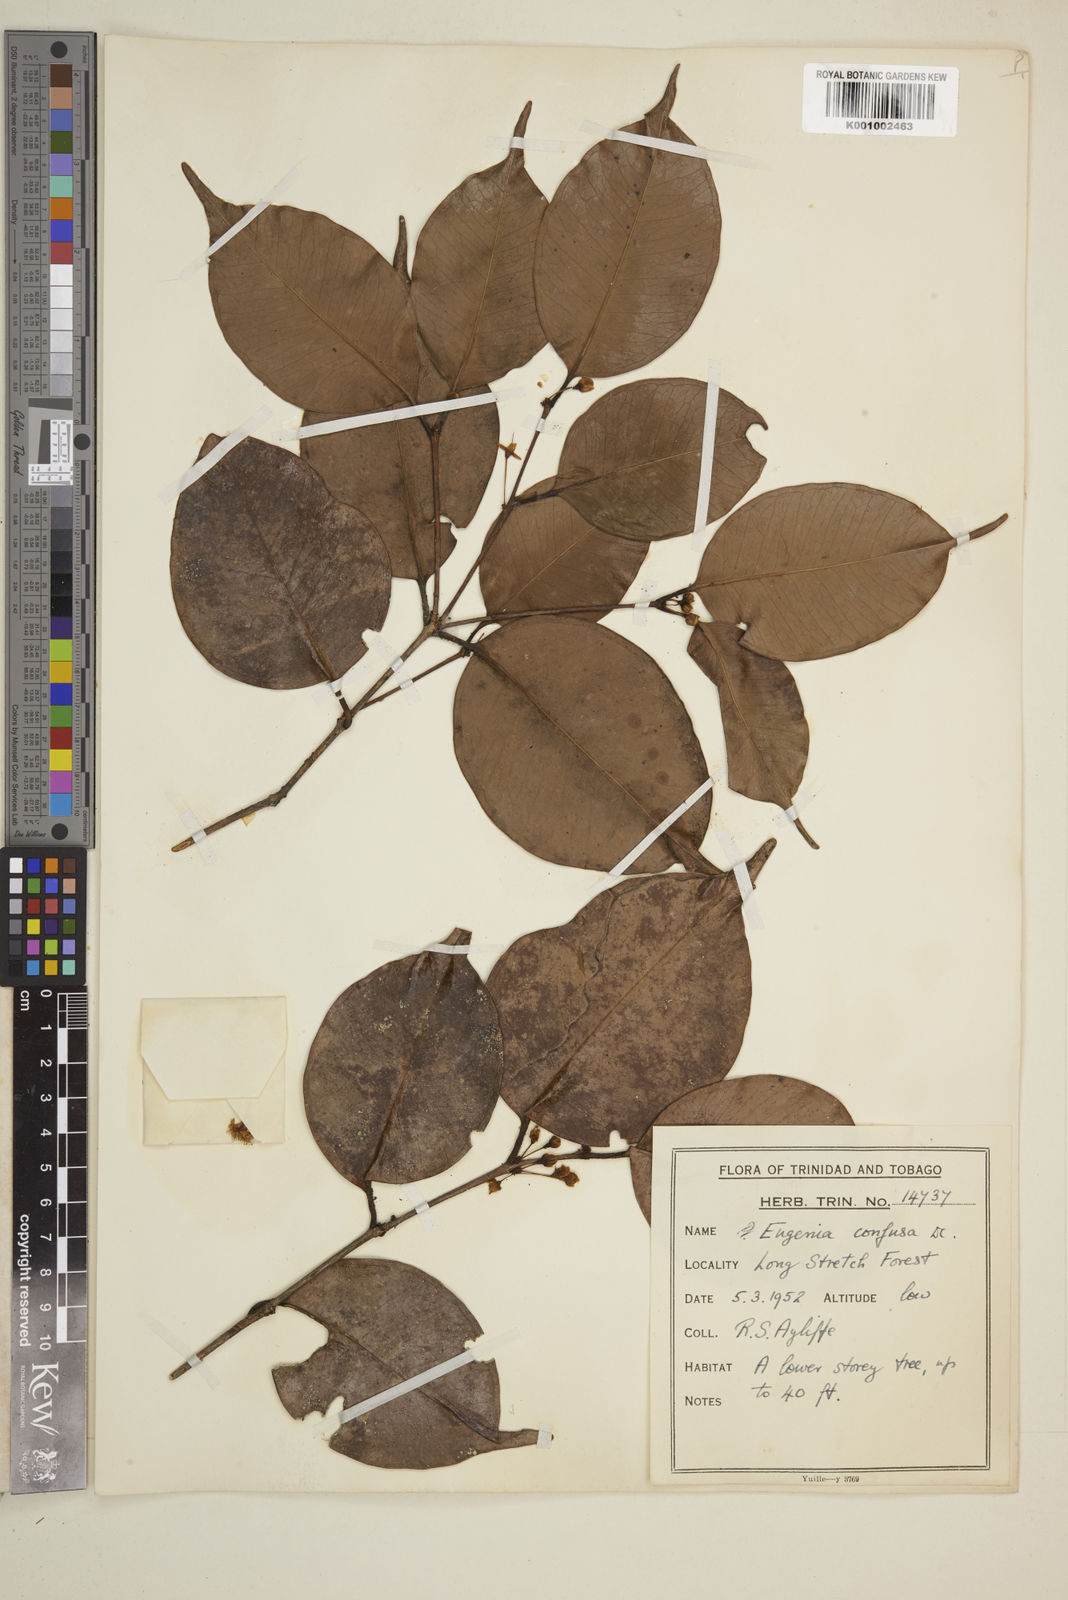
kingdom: Plantae
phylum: Tracheophyta
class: Magnoliopsida
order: Myrtales
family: Myrtaceae
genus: Eugenia
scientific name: Eugenia confusa
